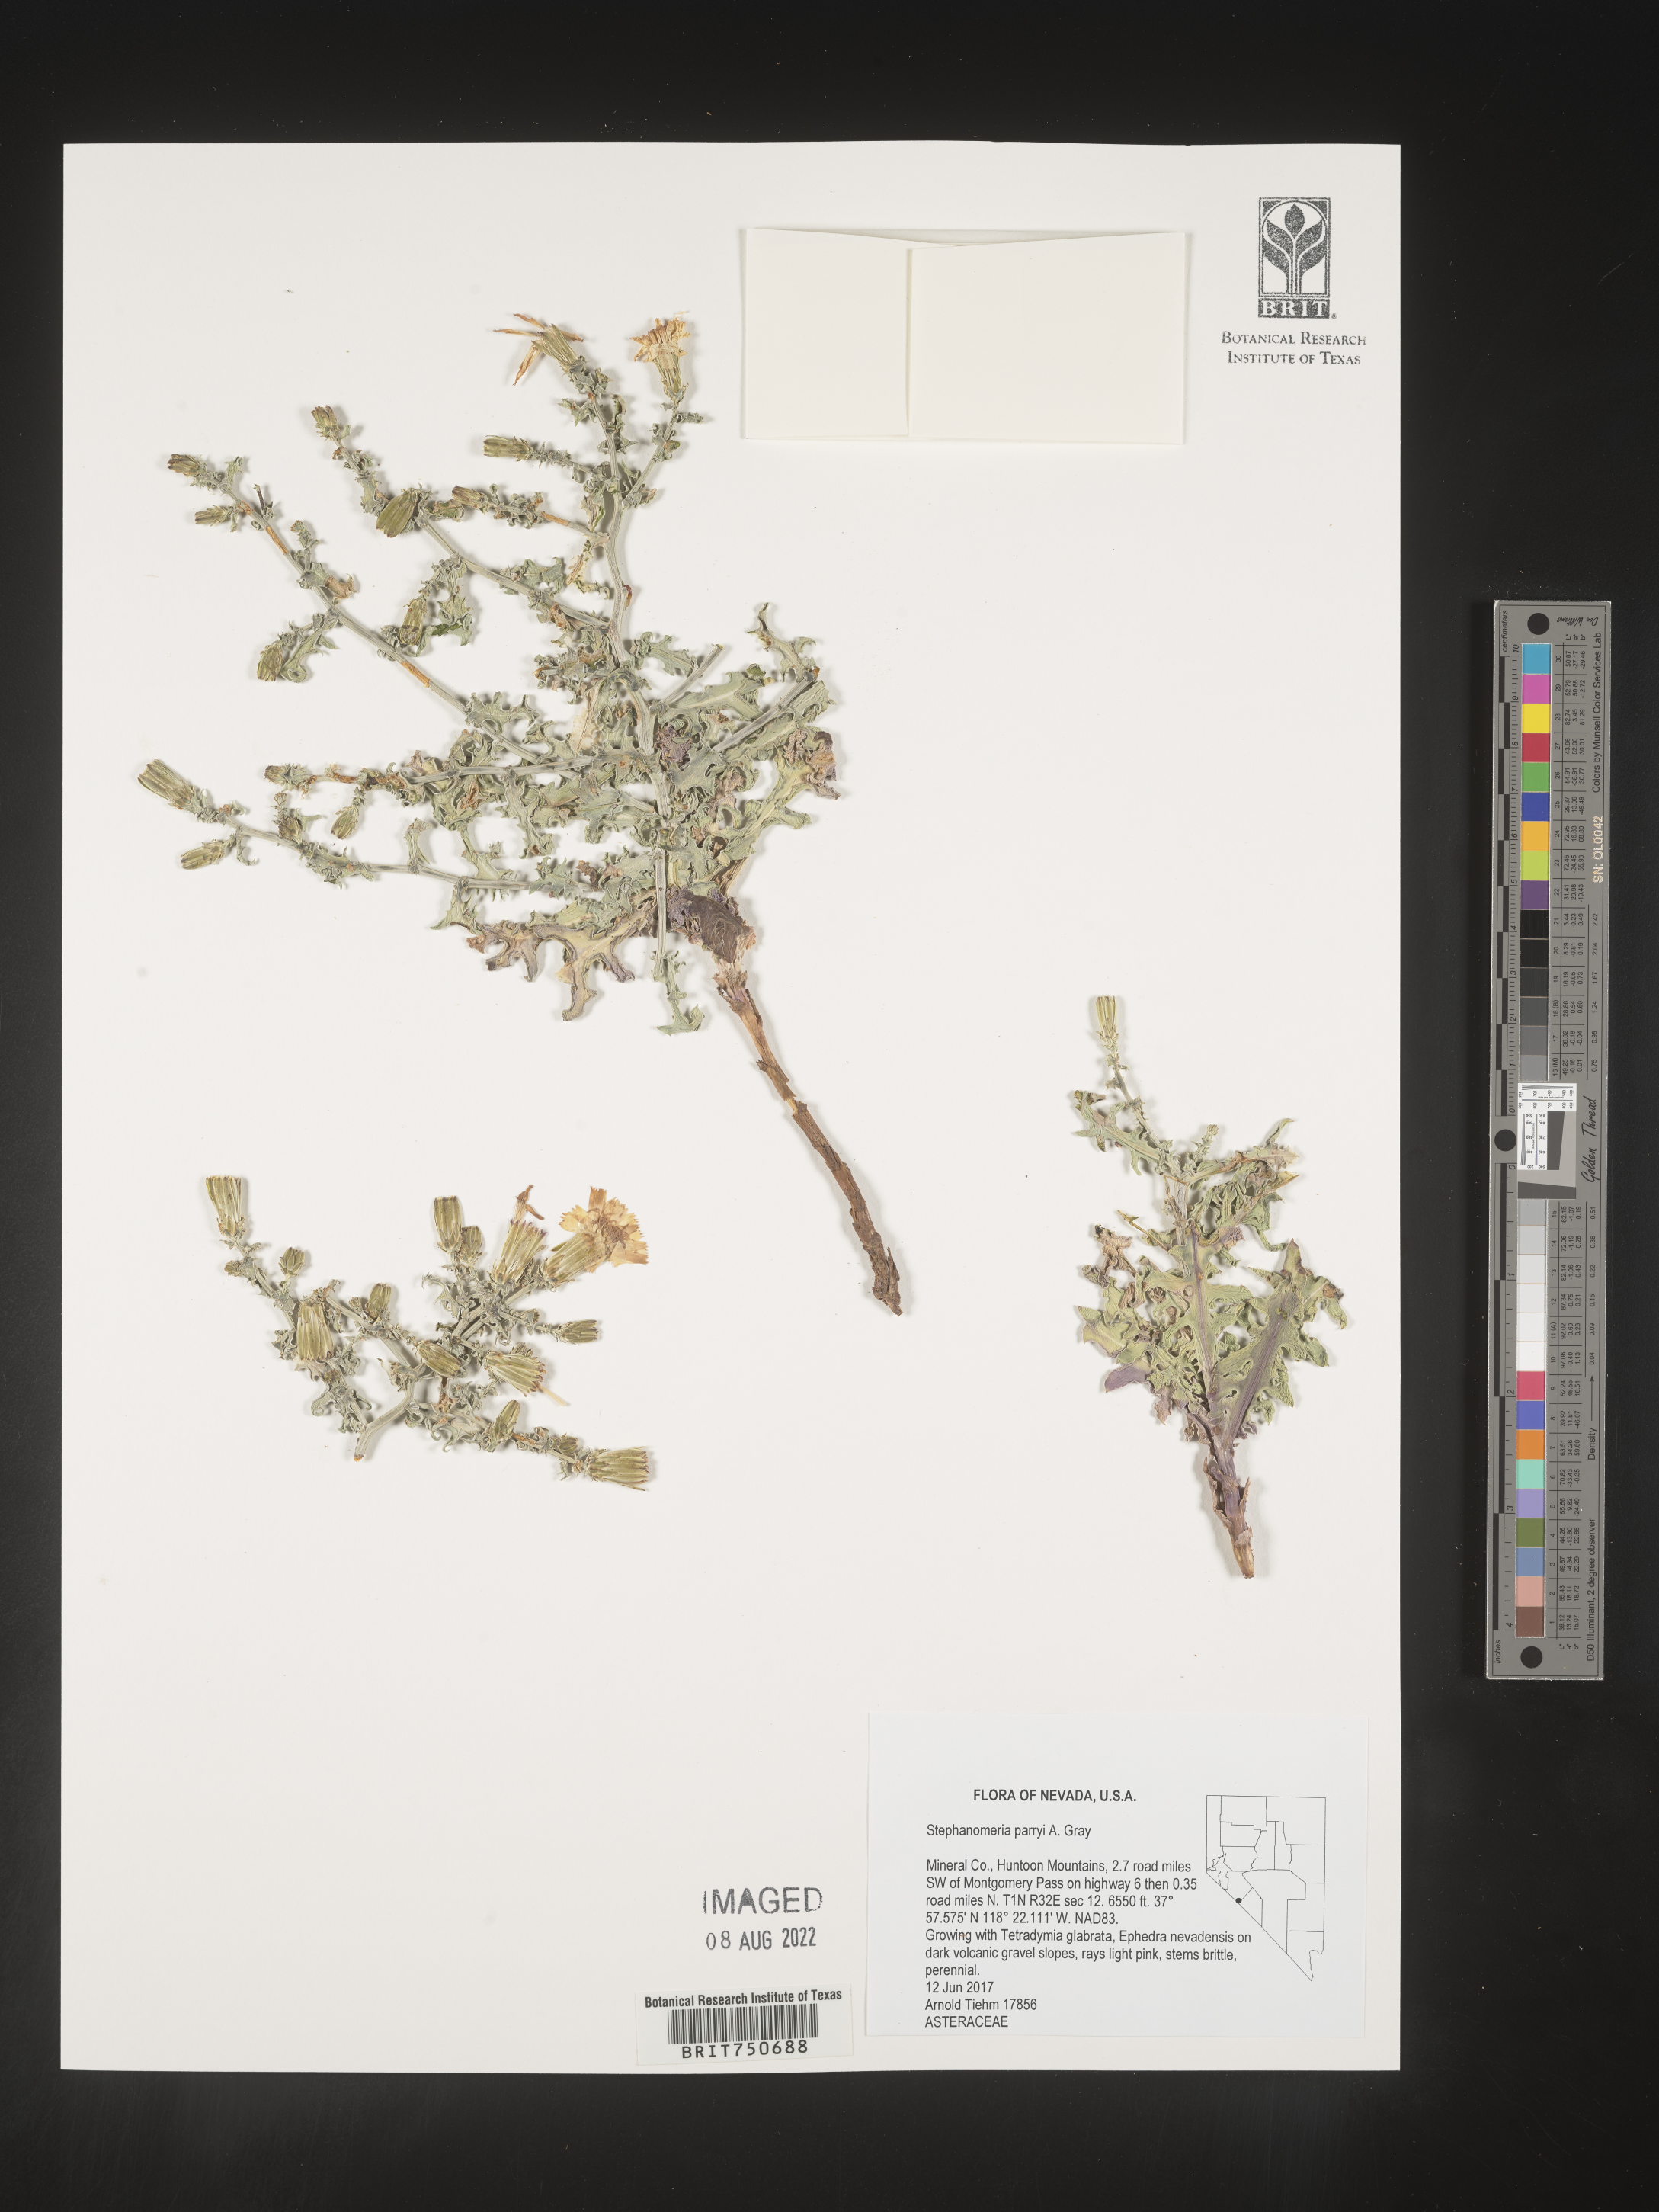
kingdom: Plantae
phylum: Tracheophyta
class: Magnoliopsida
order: Asterales
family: Asteraceae
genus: Stephanomeria
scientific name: Stephanomeria parryi
